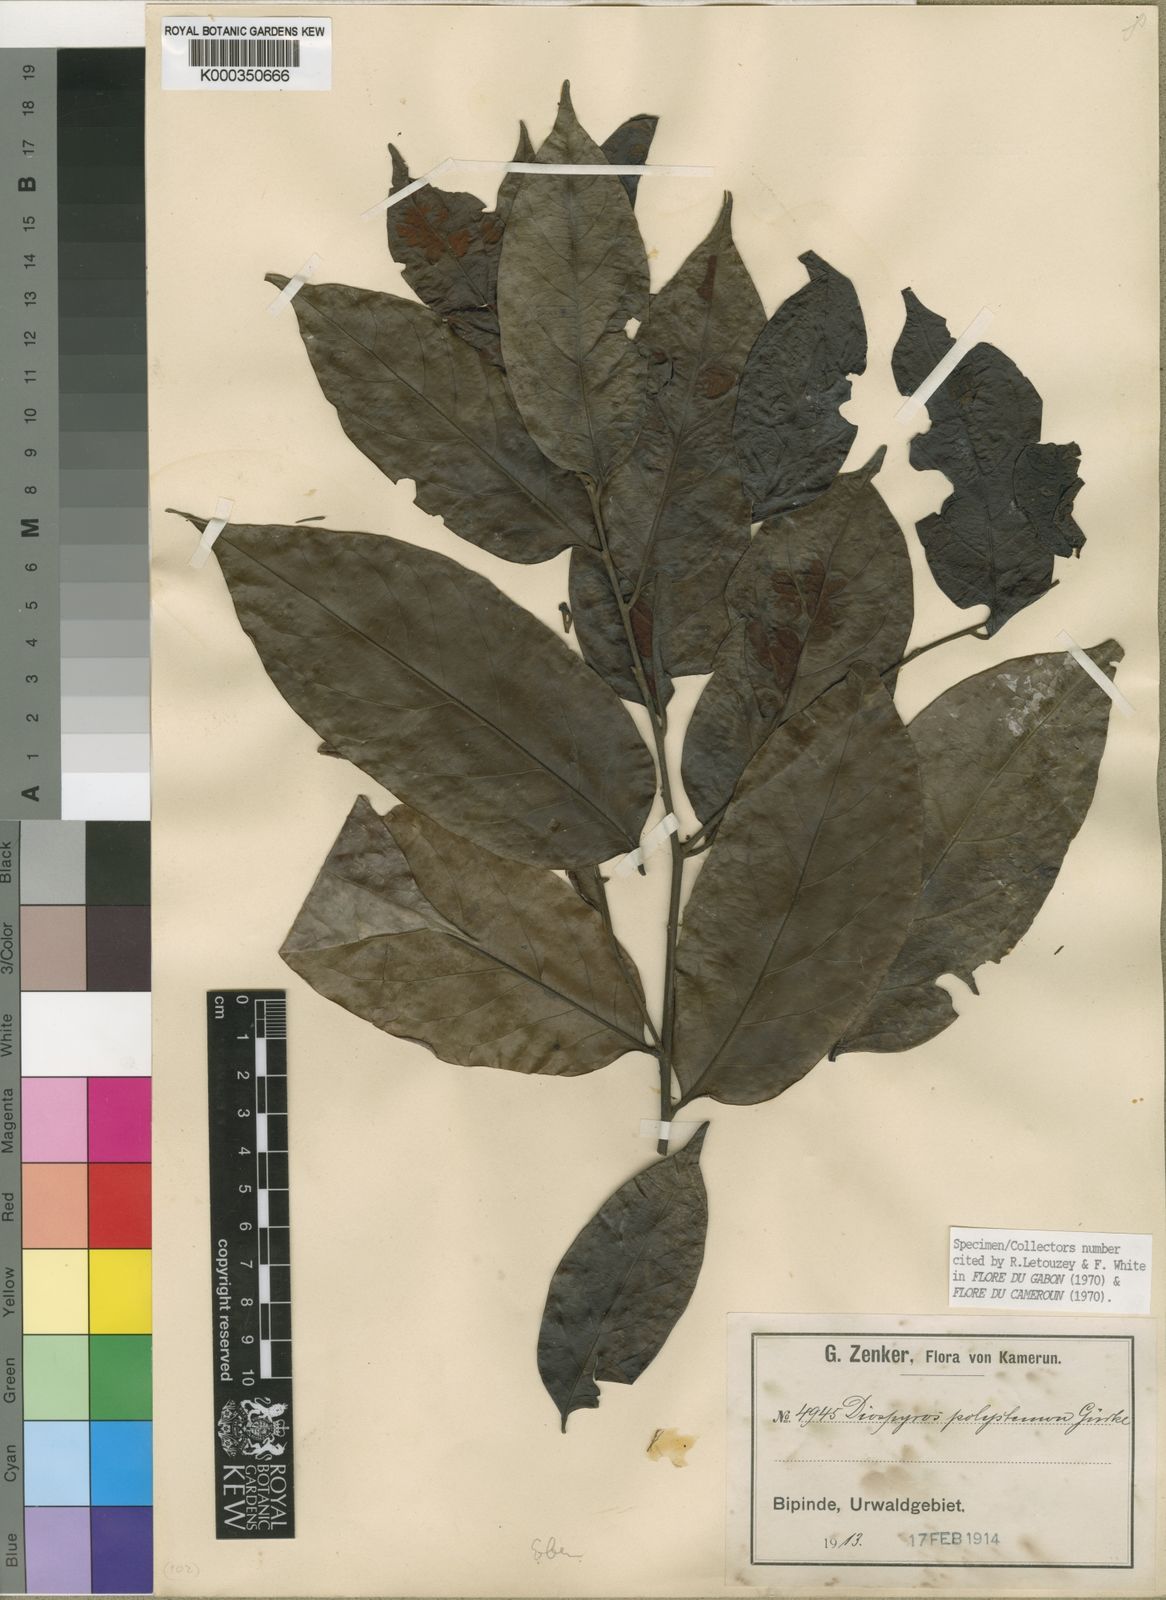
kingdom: Plantae
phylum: Tracheophyta
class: Magnoliopsida
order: Ericales
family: Ebenaceae
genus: Diospyros
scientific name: Diospyros
